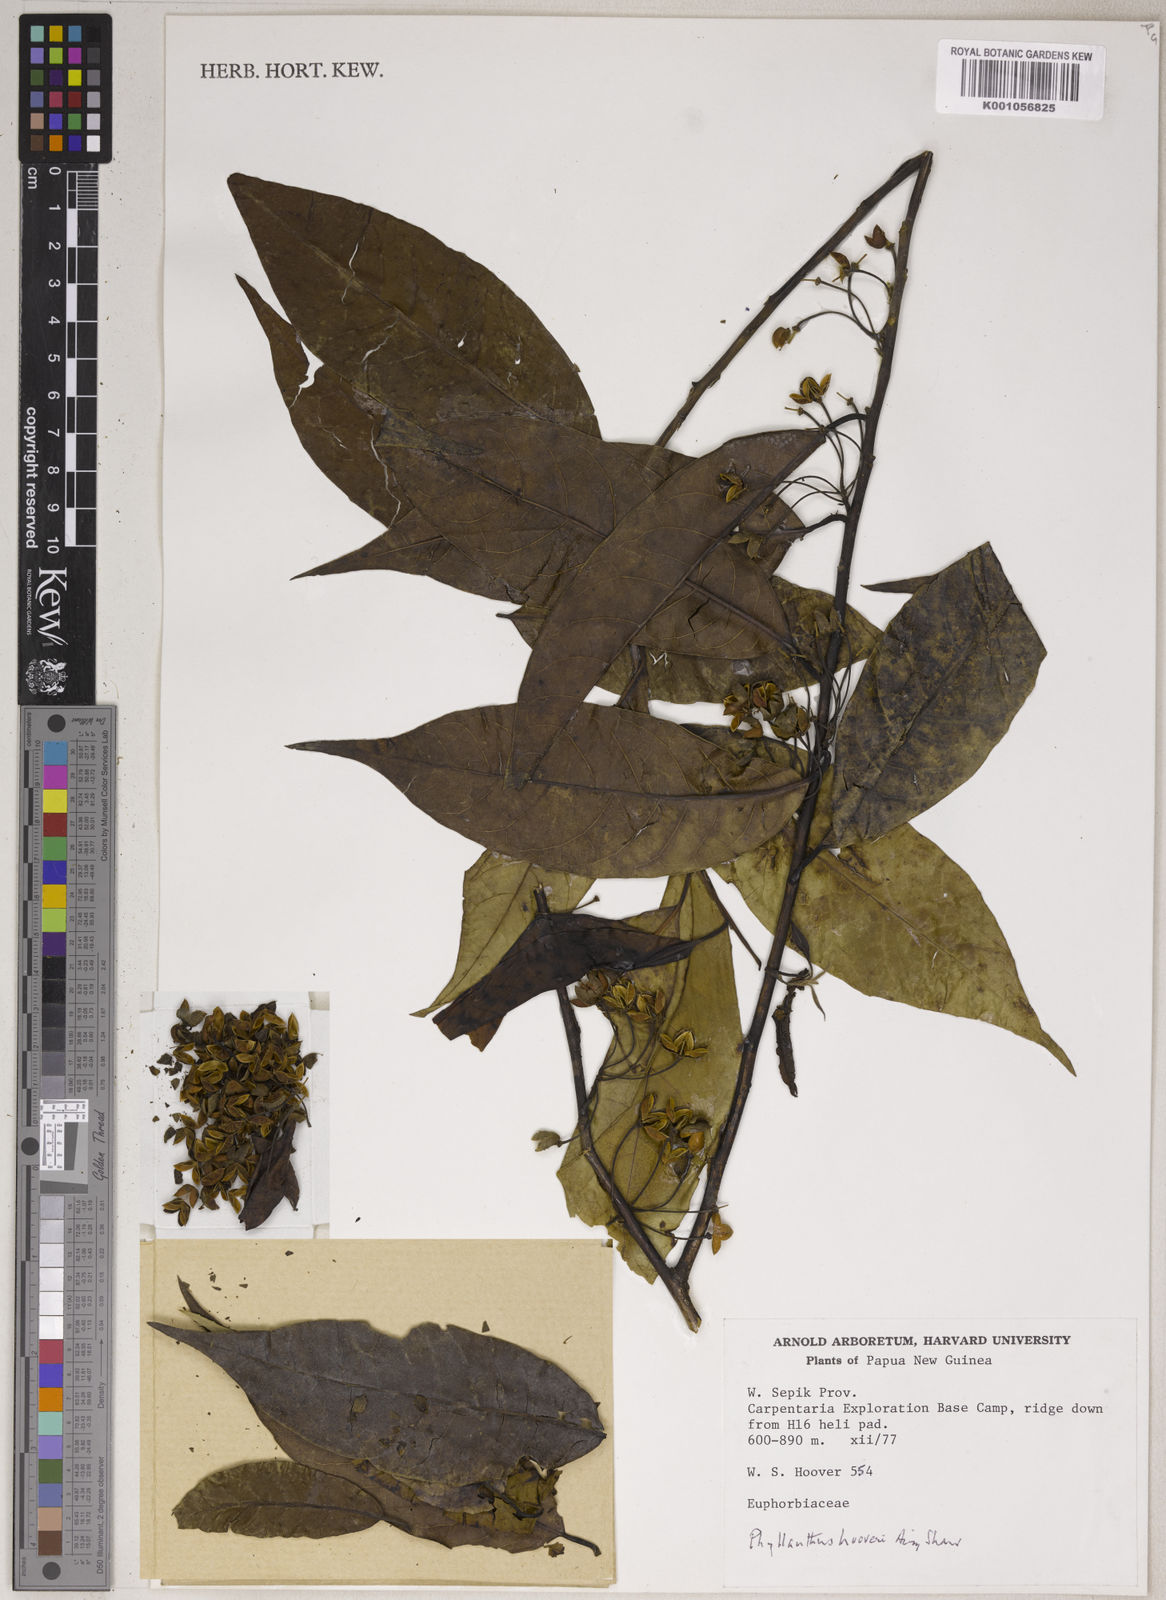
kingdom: Plantae
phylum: Tracheophyta
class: Magnoliopsida
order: Malpighiales
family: Phyllanthaceae
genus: Phyllanthus
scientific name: Phyllanthus
